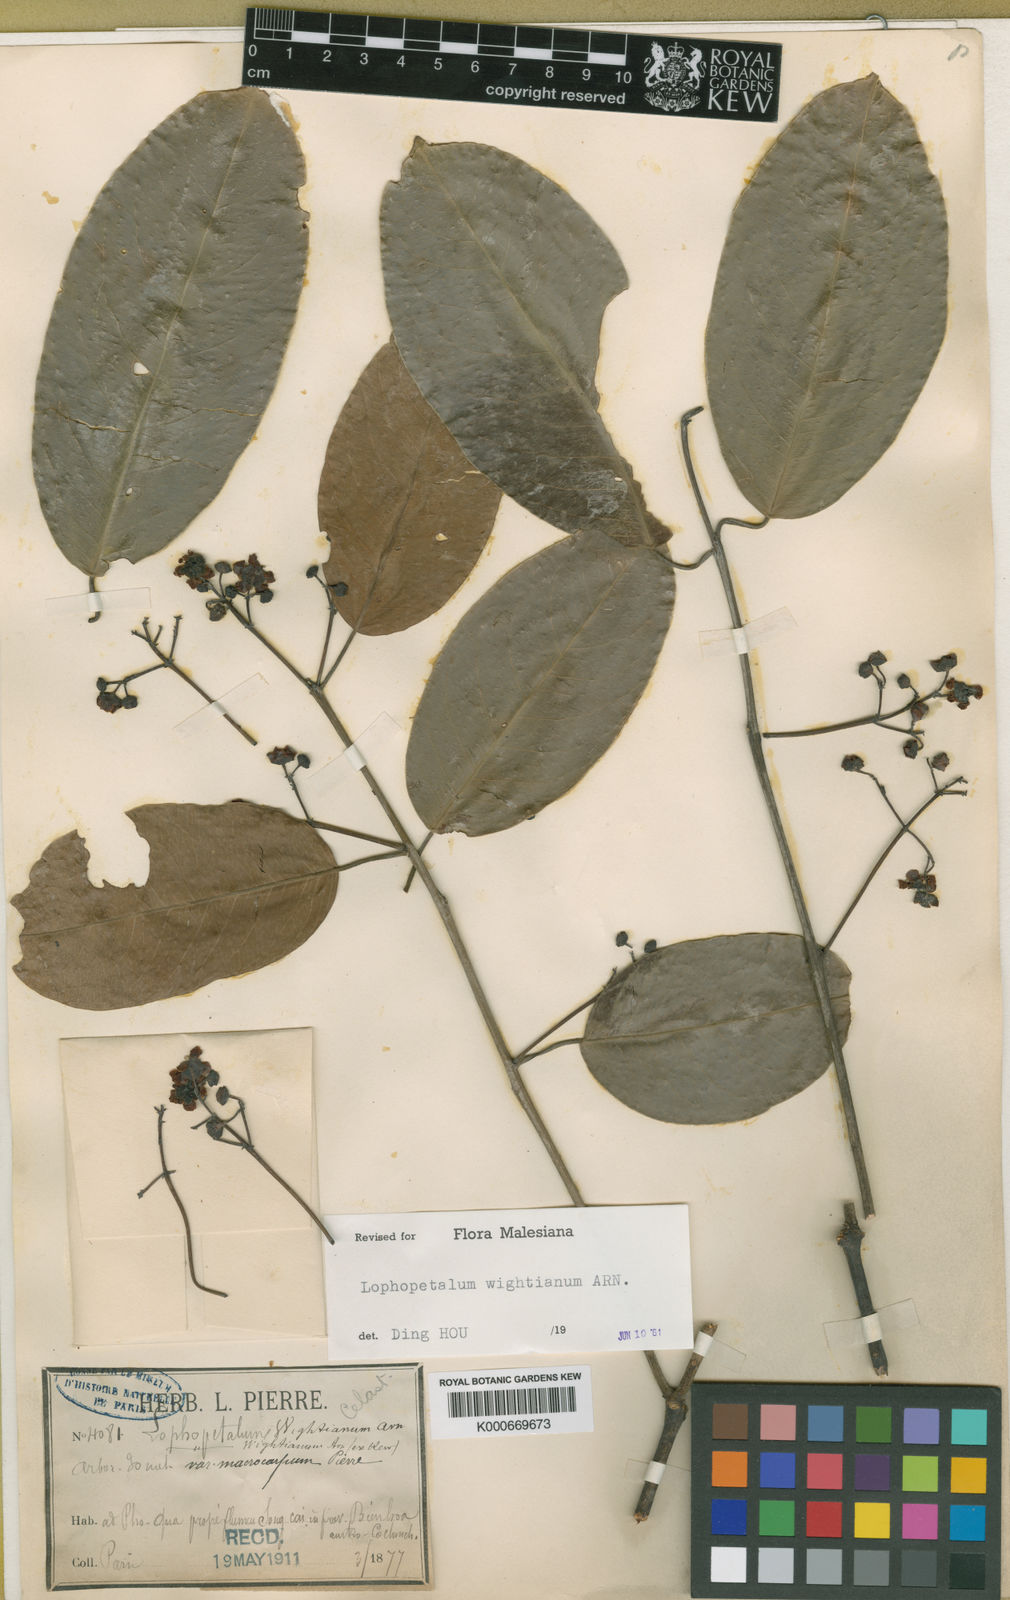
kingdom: Plantae
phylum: Tracheophyta
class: Magnoliopsida
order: Celastrales
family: Celastraceae
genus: Lophopetalum
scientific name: Lophopetalum wightianum
